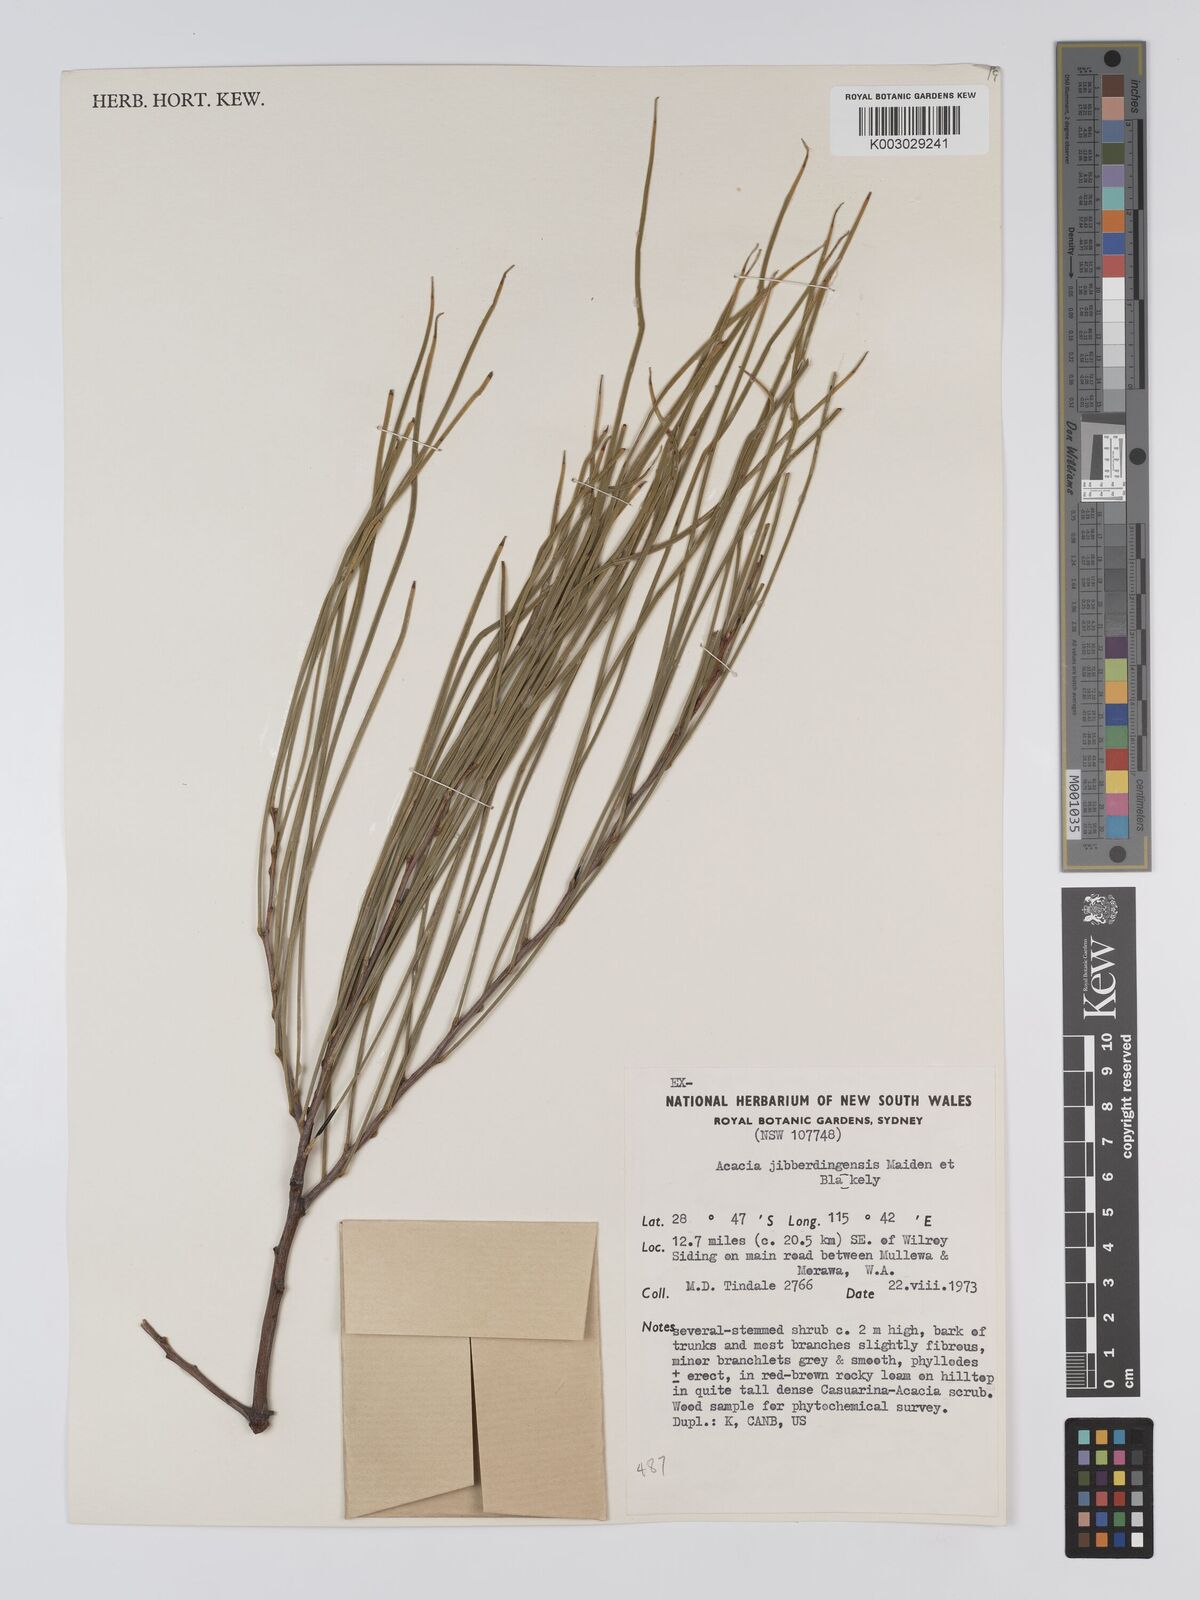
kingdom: Plantae
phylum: Tracheophyta
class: Magnoliopsida
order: Fabales
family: Fabaceae
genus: Acacia
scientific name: Acacia jibberdingensis
